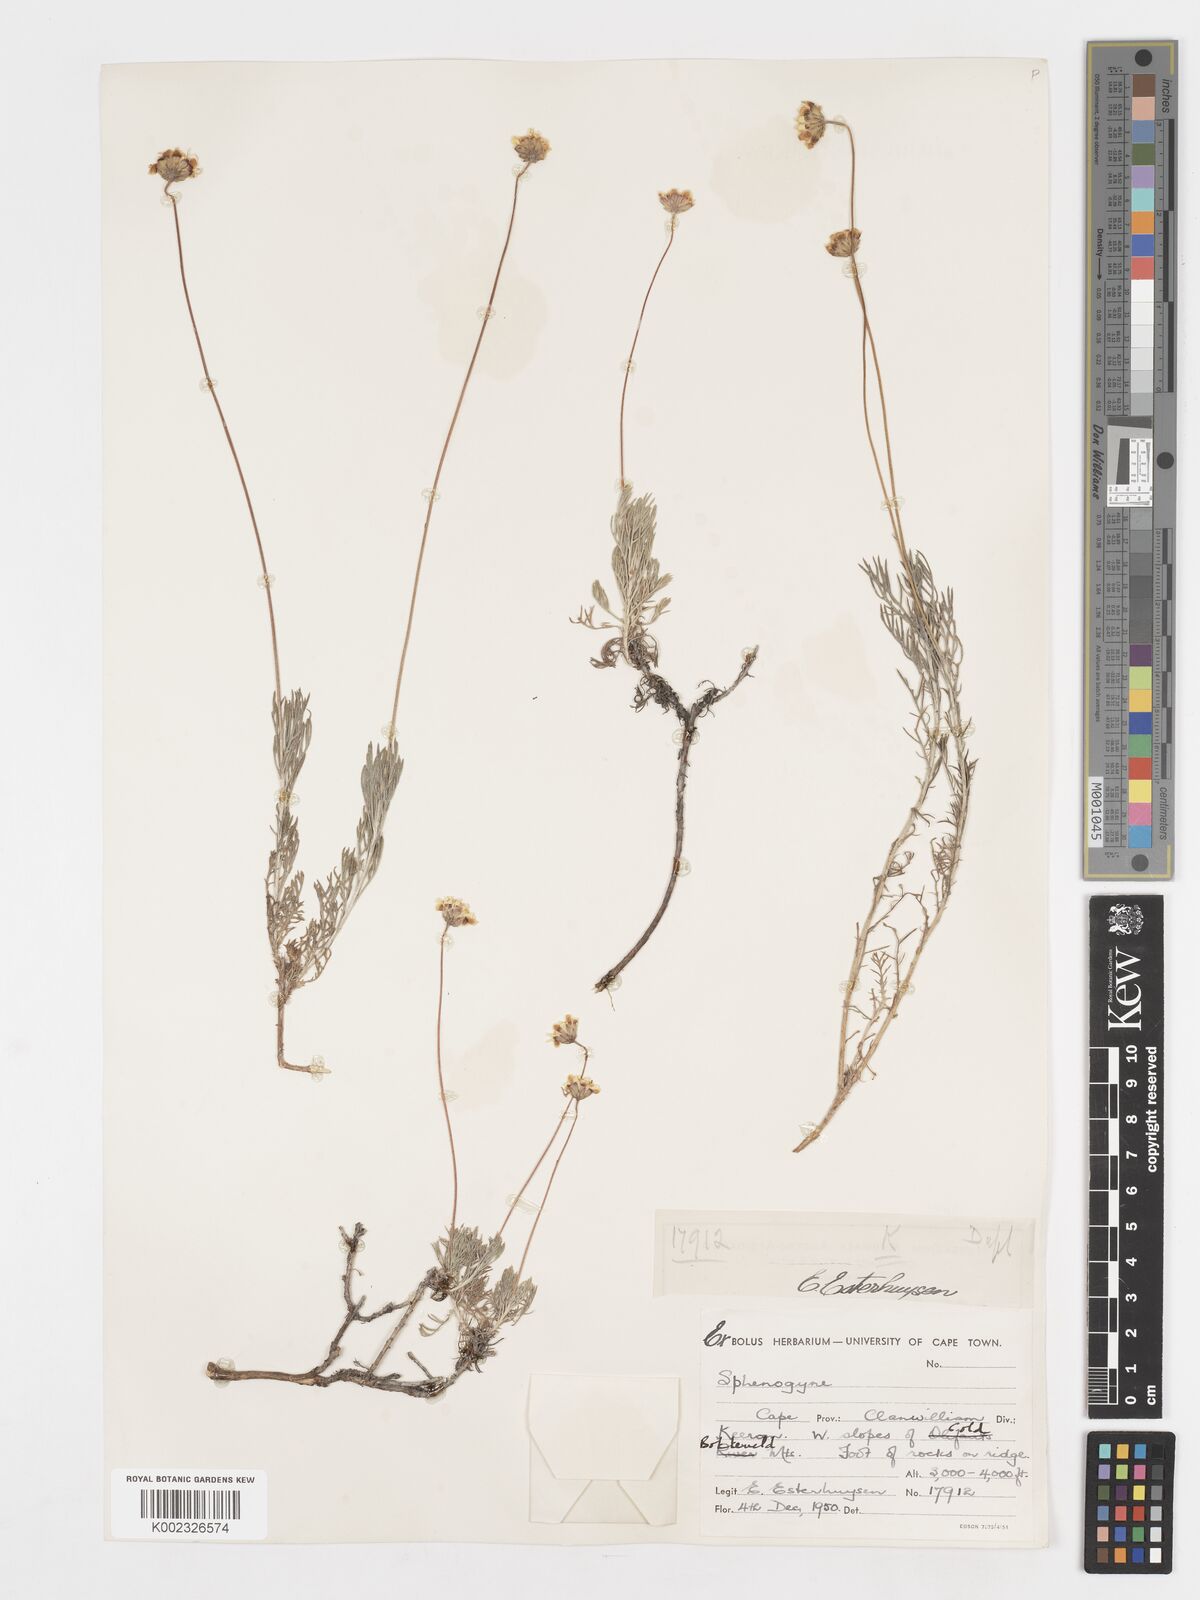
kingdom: Plantae
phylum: Tracheophyta
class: Magnoliopsida
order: Asterales
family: Asteraceae
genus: Ursinia
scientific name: Ursinia sericea
